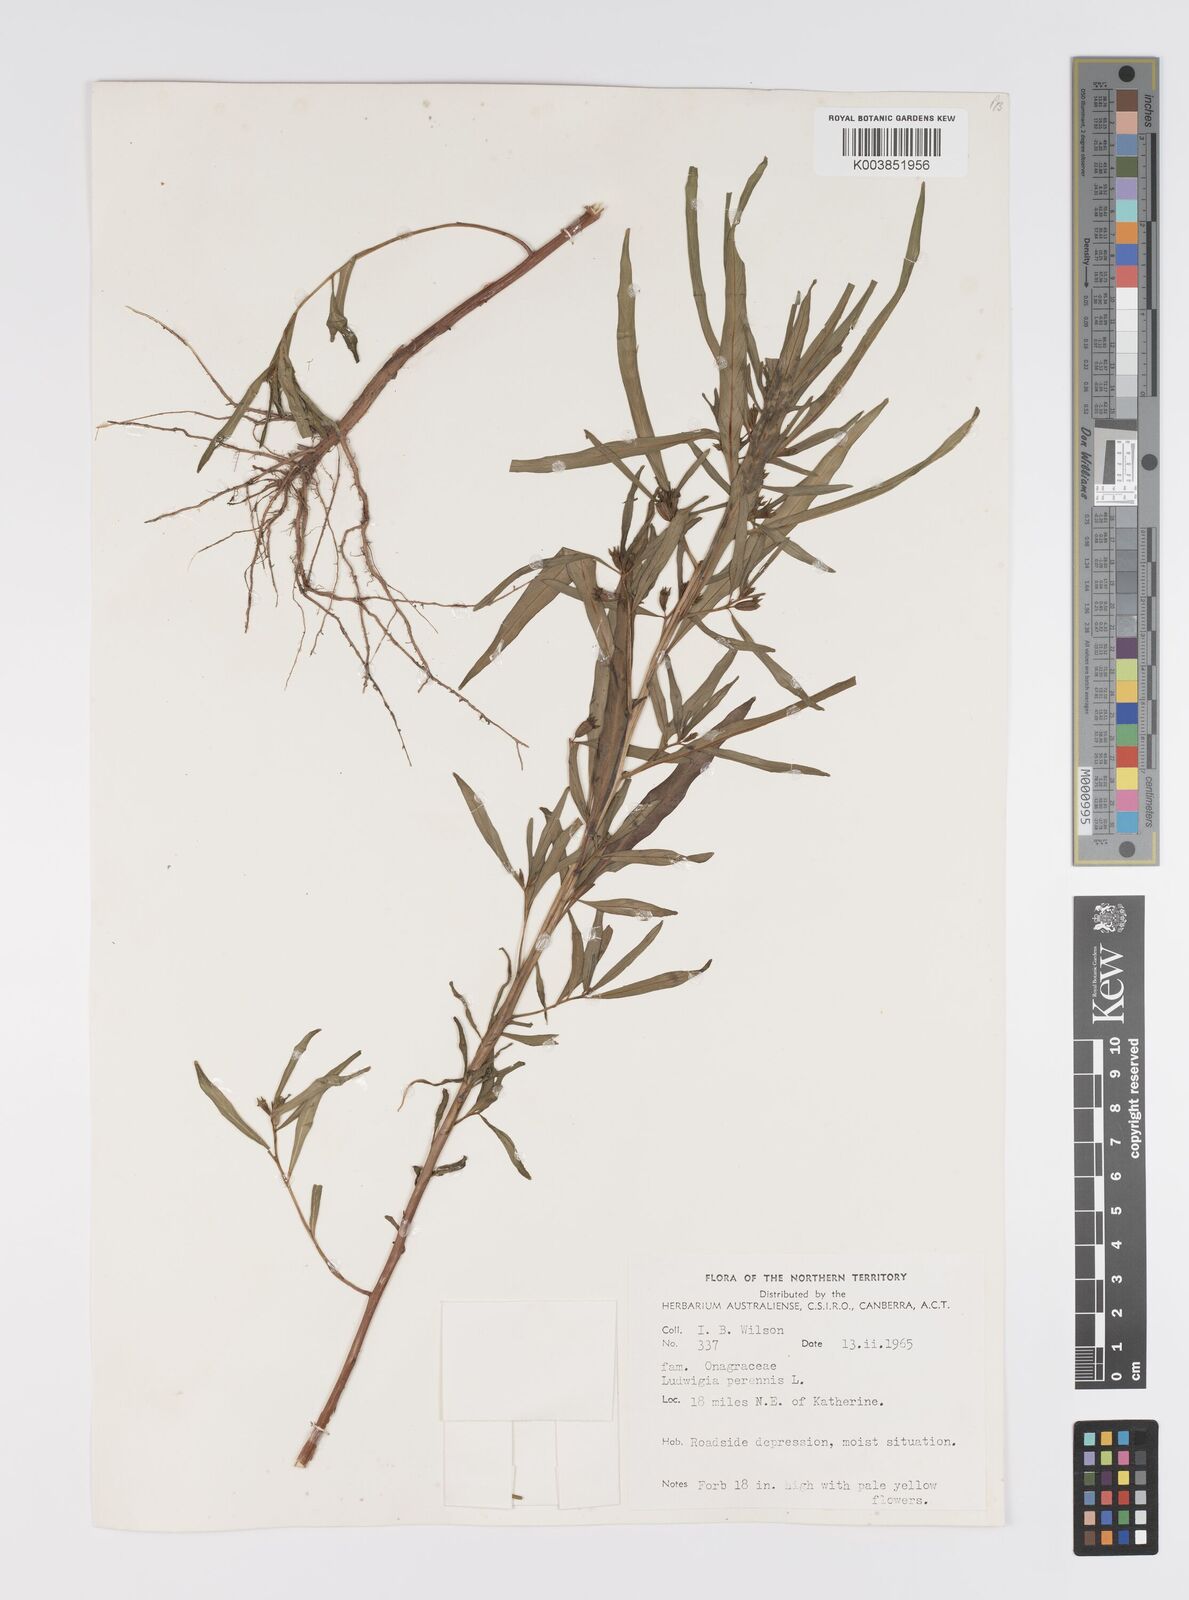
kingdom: Plantae
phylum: Tracheophyta
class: Magnoliopsida
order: Myrtales
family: Onagraceae
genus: Ludwigia
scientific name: Ludwigia perennis
